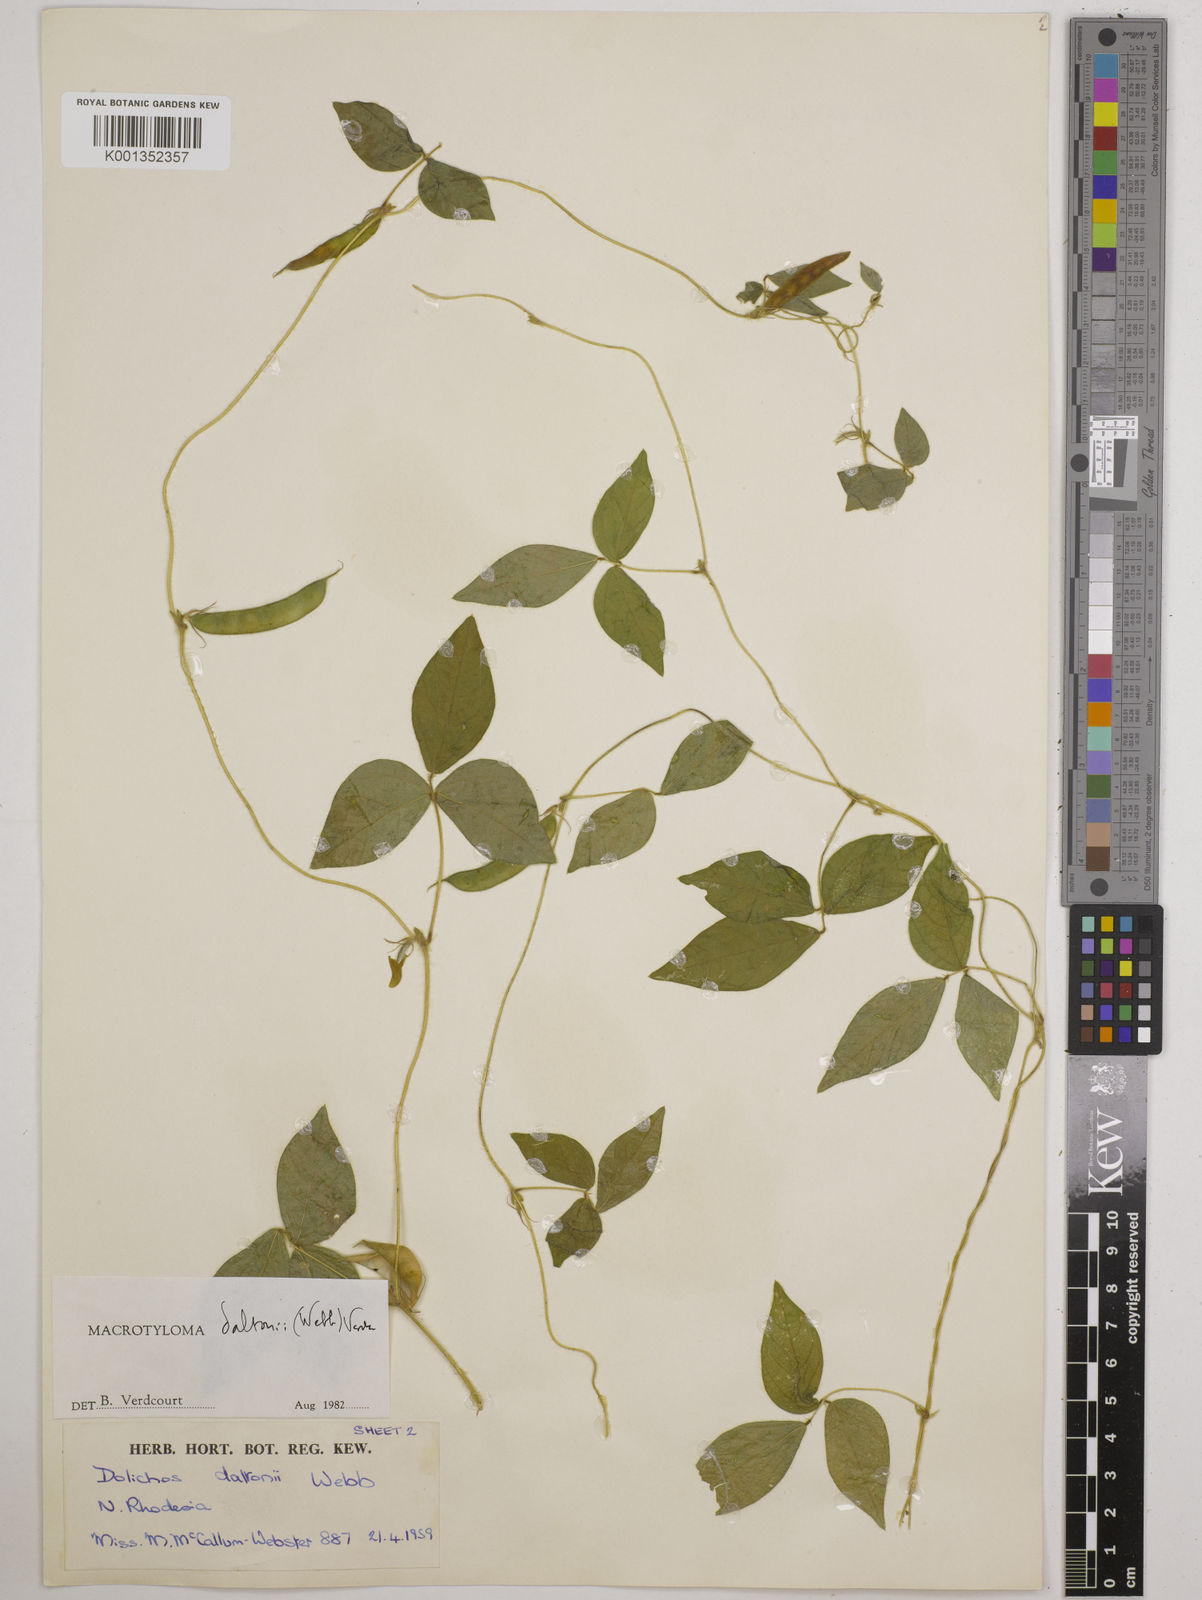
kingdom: Plantae
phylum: Tracheophyta
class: Magnoliopsida
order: Fabales
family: Fabaceae
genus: Macrotyloma
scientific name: Macrotyloma daltonii
